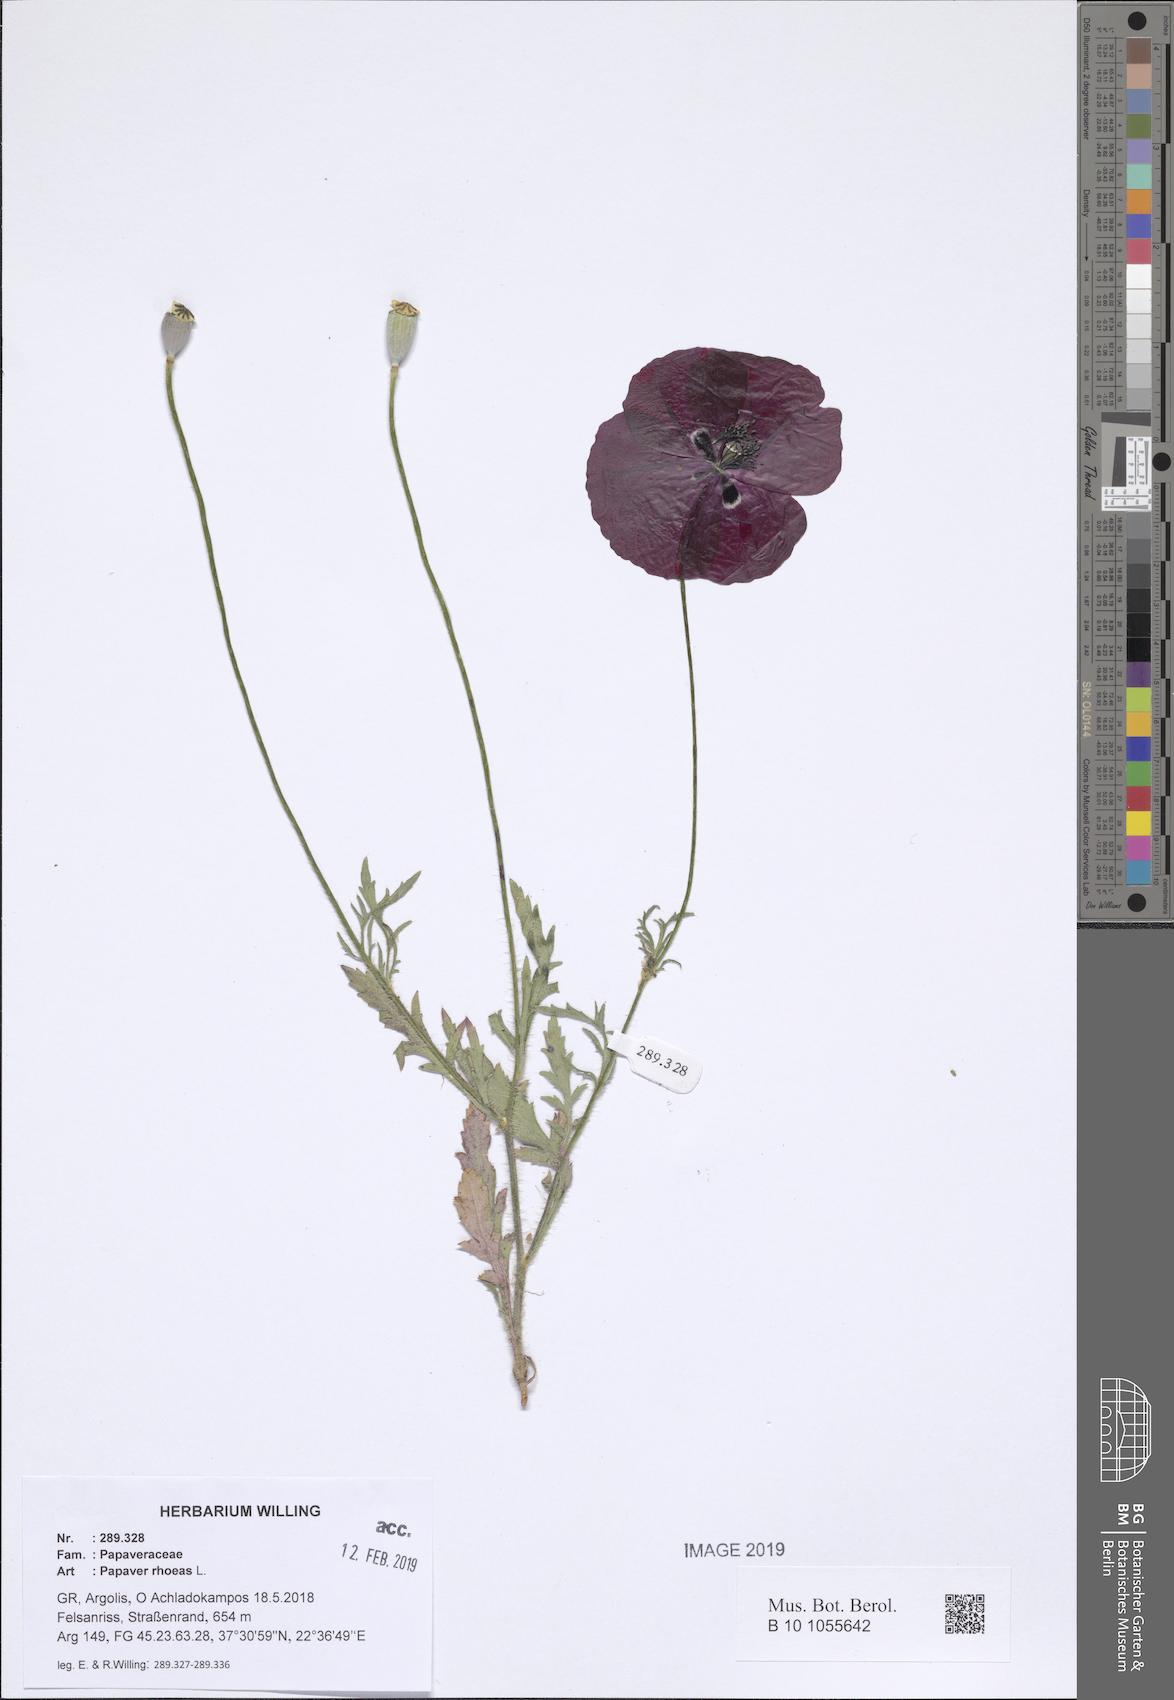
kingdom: Plantae
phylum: Tracheophyta
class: Magnoliopsida
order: Ranunculales
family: Papaveraceae
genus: Papaver
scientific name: Papaver rhoeas
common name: Corn poppy
